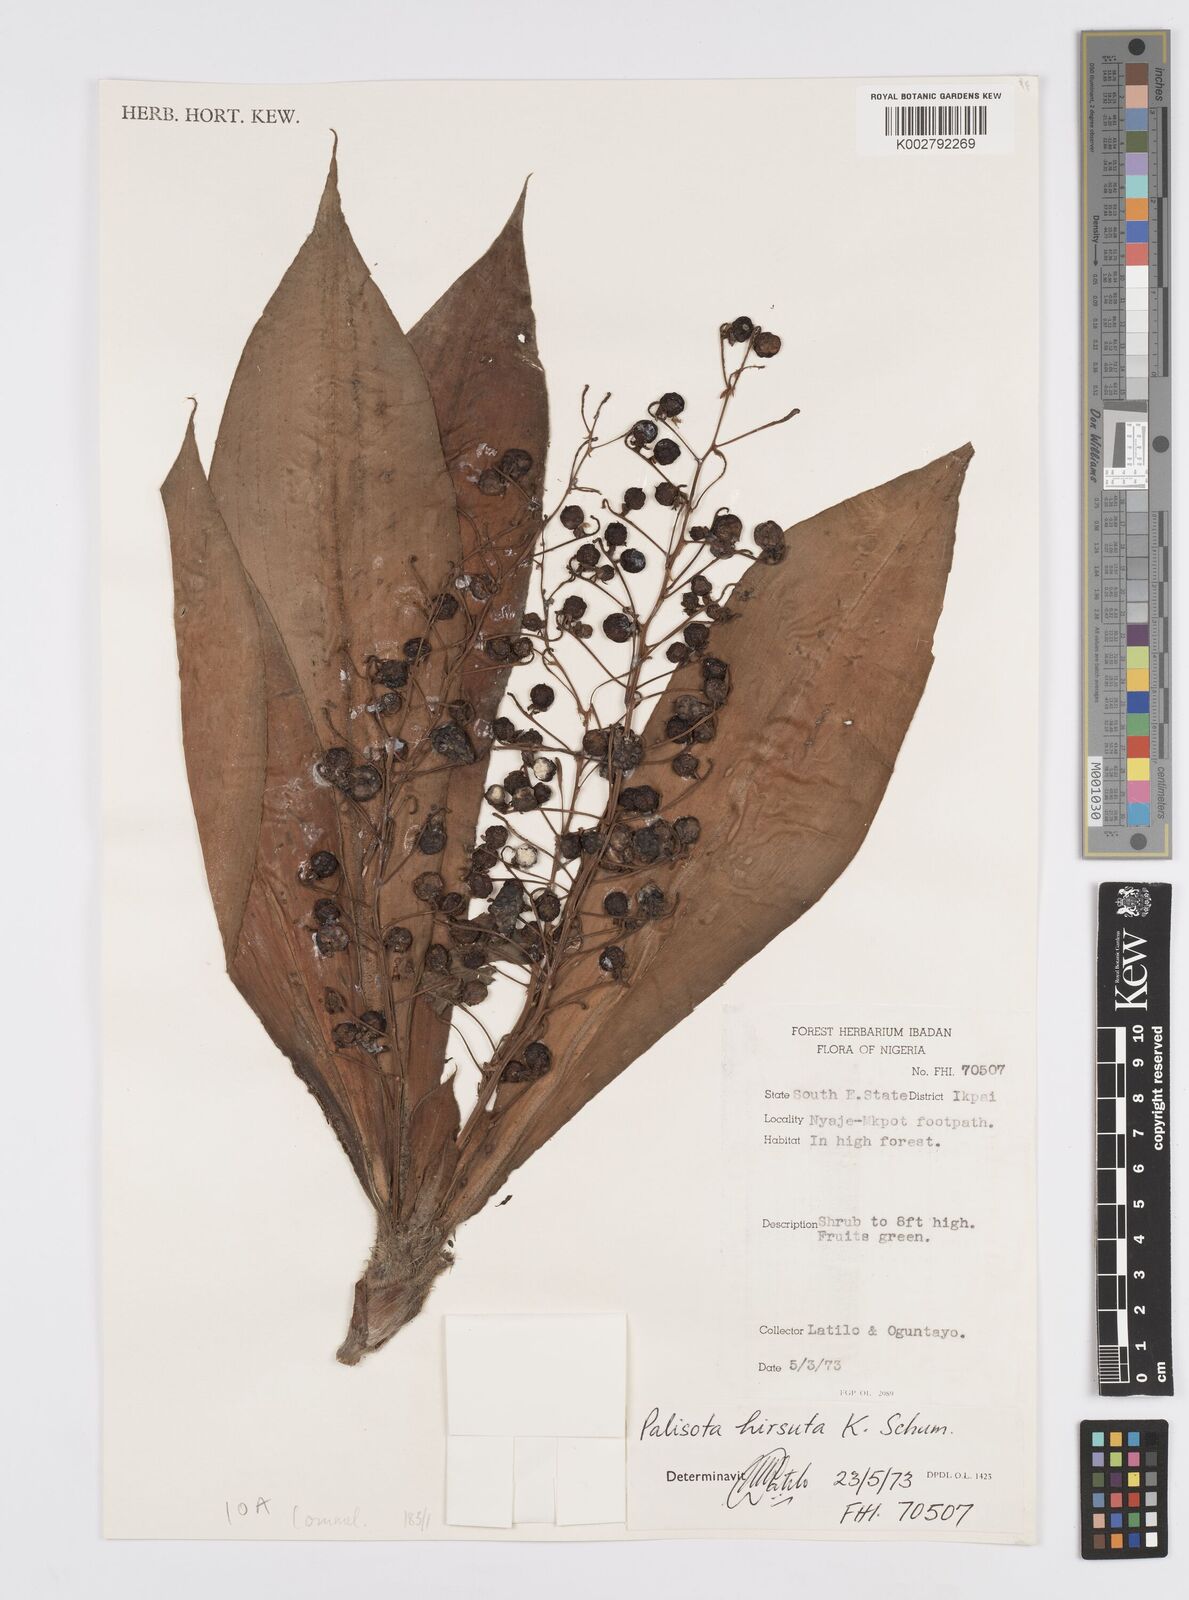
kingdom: Plantae
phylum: Tracheophyta
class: Liliopsida
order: Commelinales
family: Commelinaceae
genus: Palisota
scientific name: Palisota hirsuta
